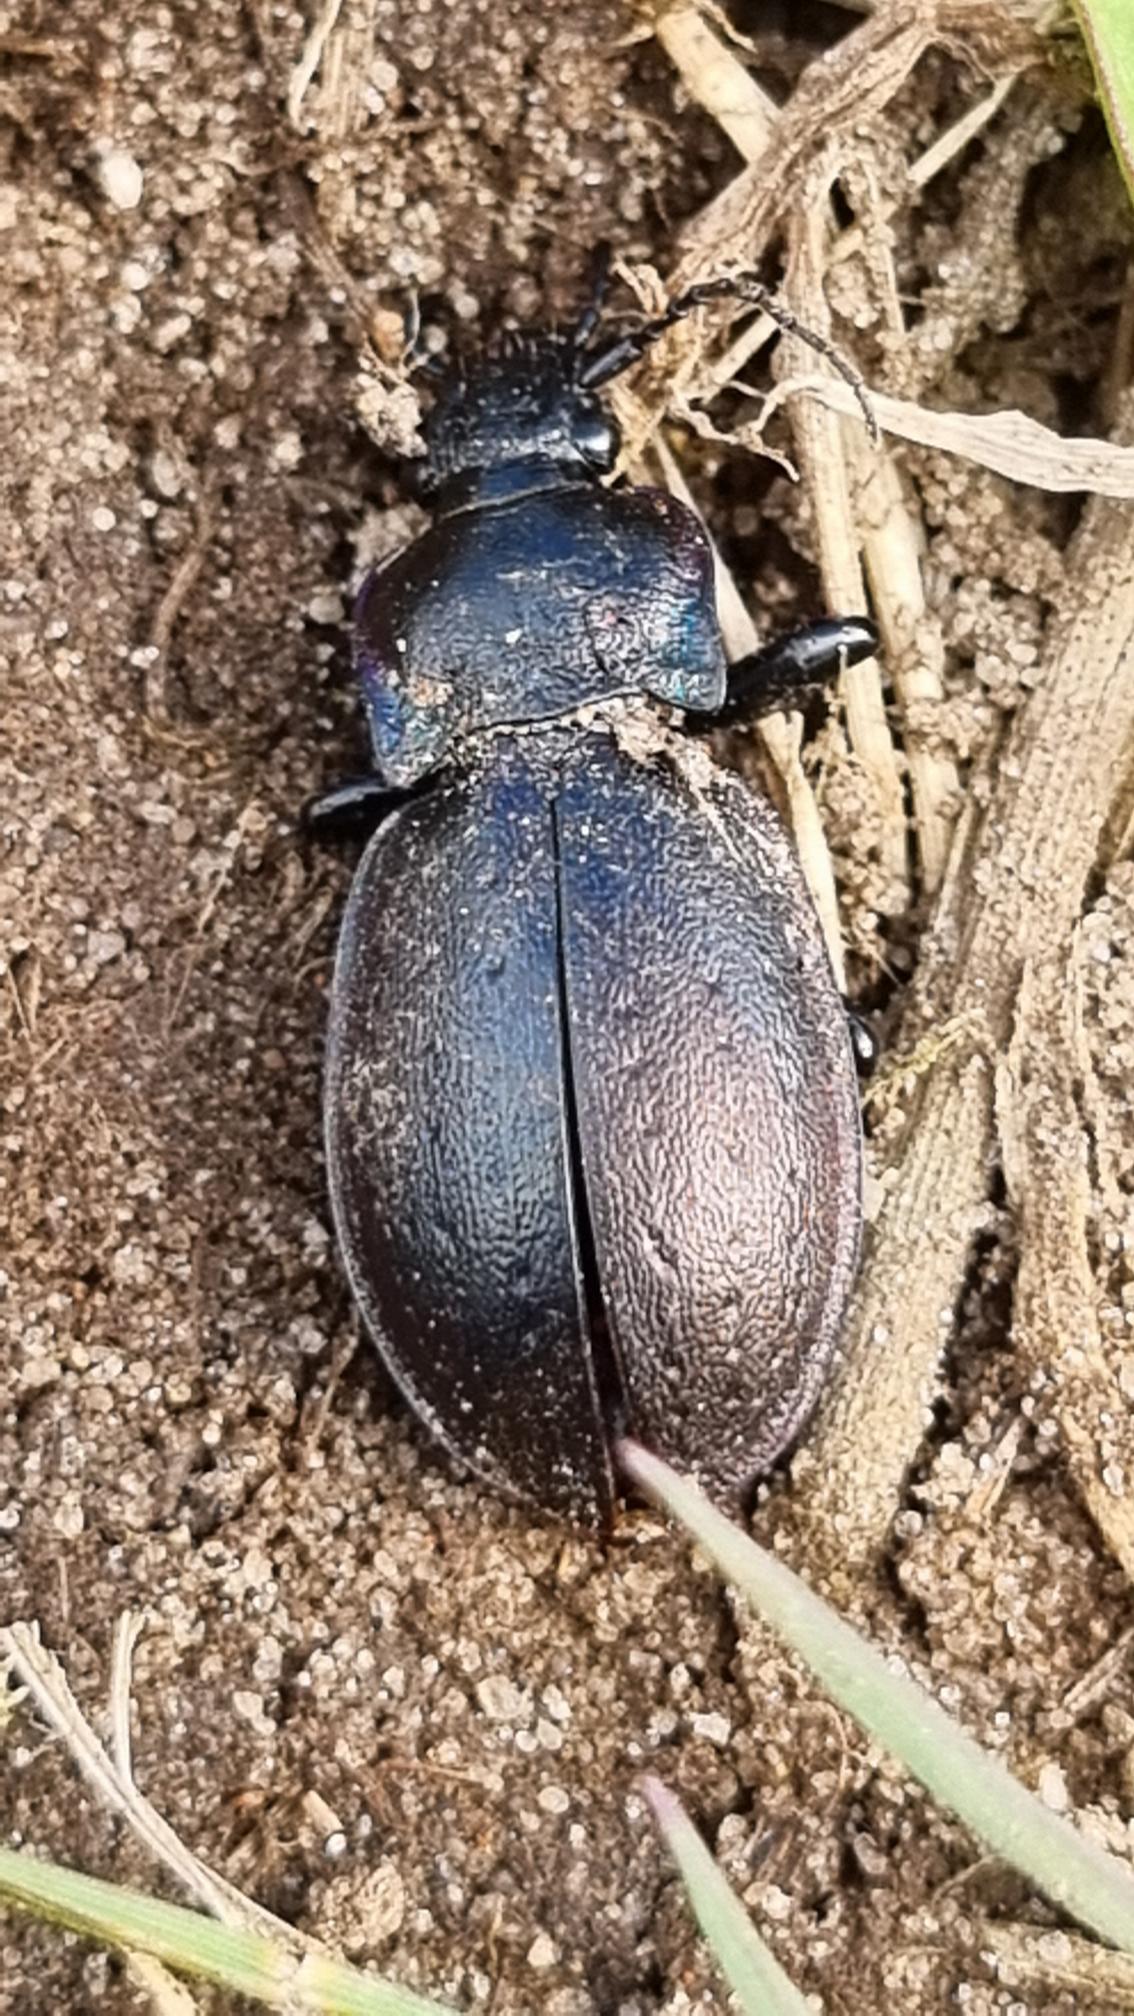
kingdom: Animalia
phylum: Arthropoda
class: Insecta
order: Coleoptera
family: Carabidae
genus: Carabus
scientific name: Carabus nemoralis
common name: Kratløber
